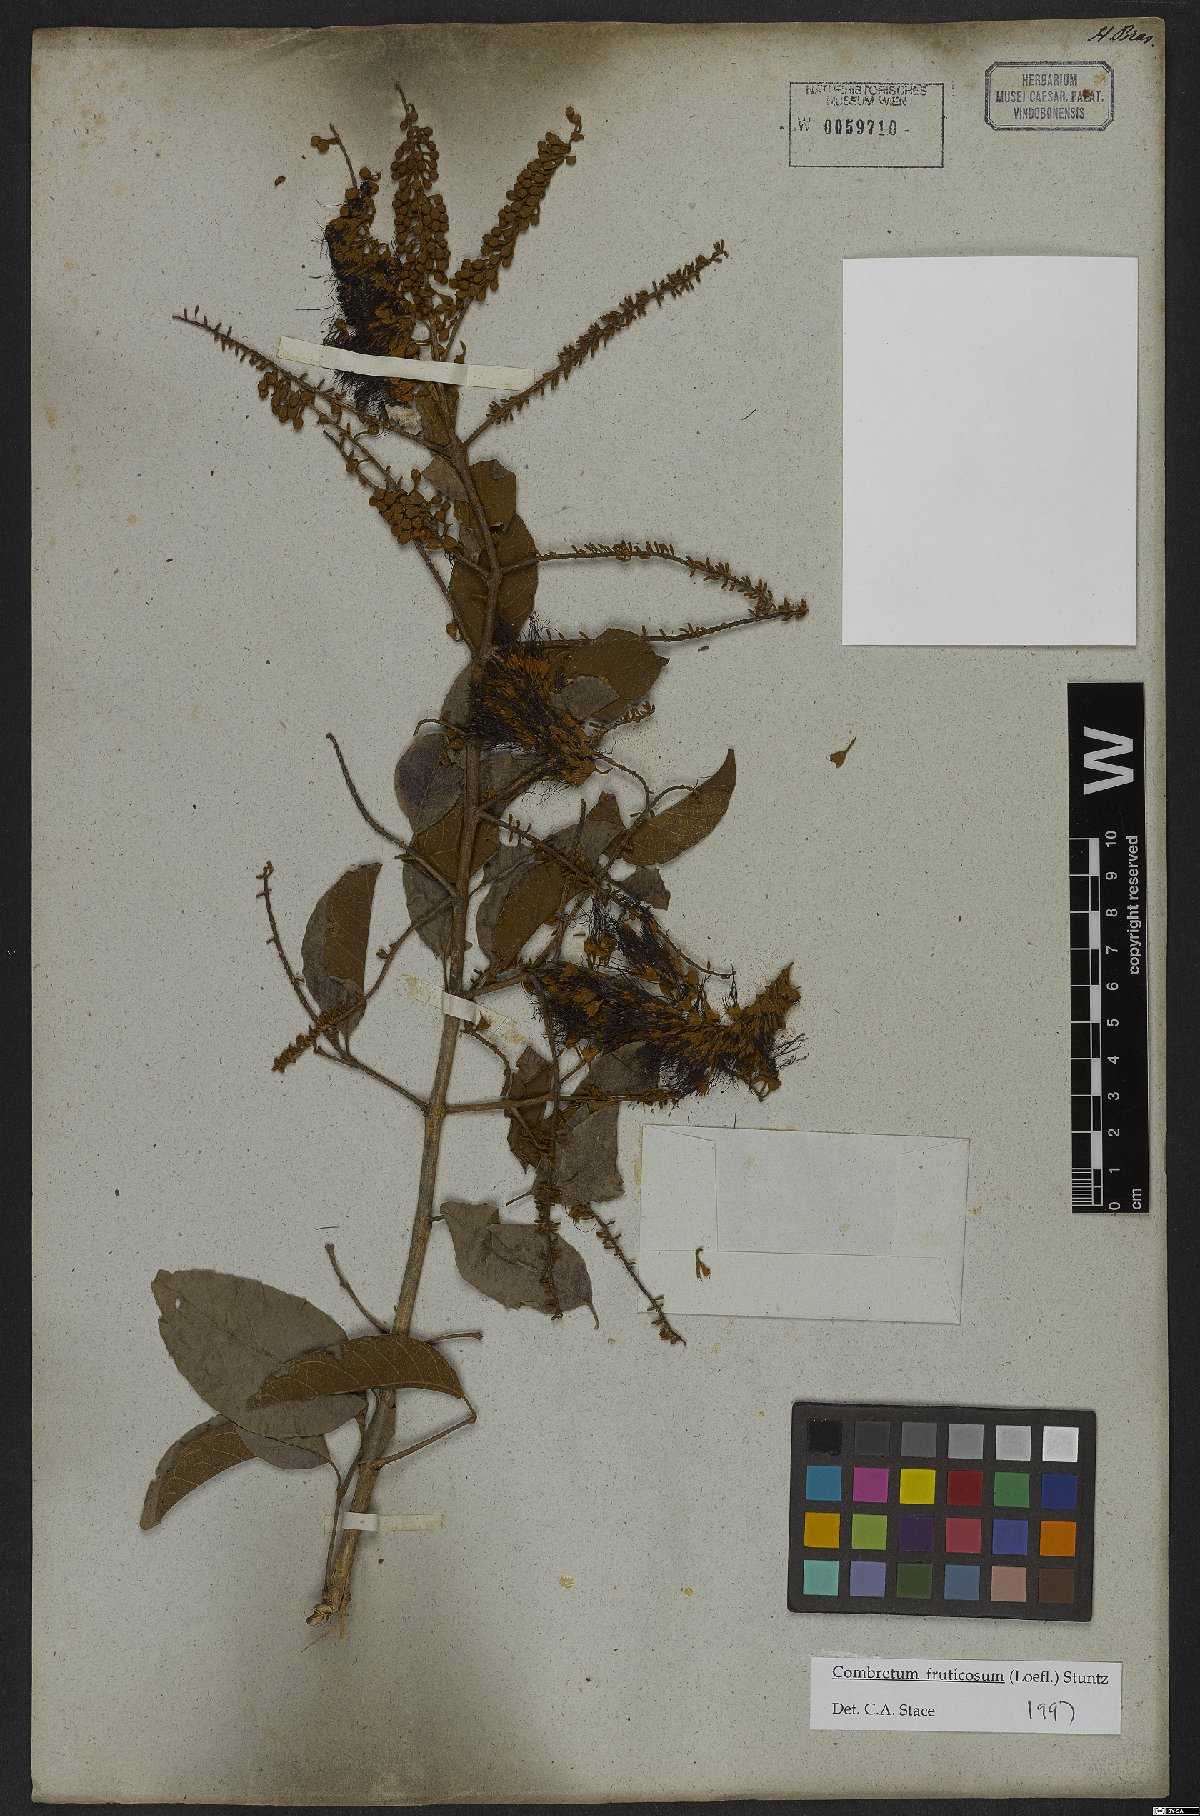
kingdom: Plantae
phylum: Tracheophyta
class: Magnoliopsida
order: Myrtales
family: Combretaceae
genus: Combretum
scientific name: Combretum fruticosum
